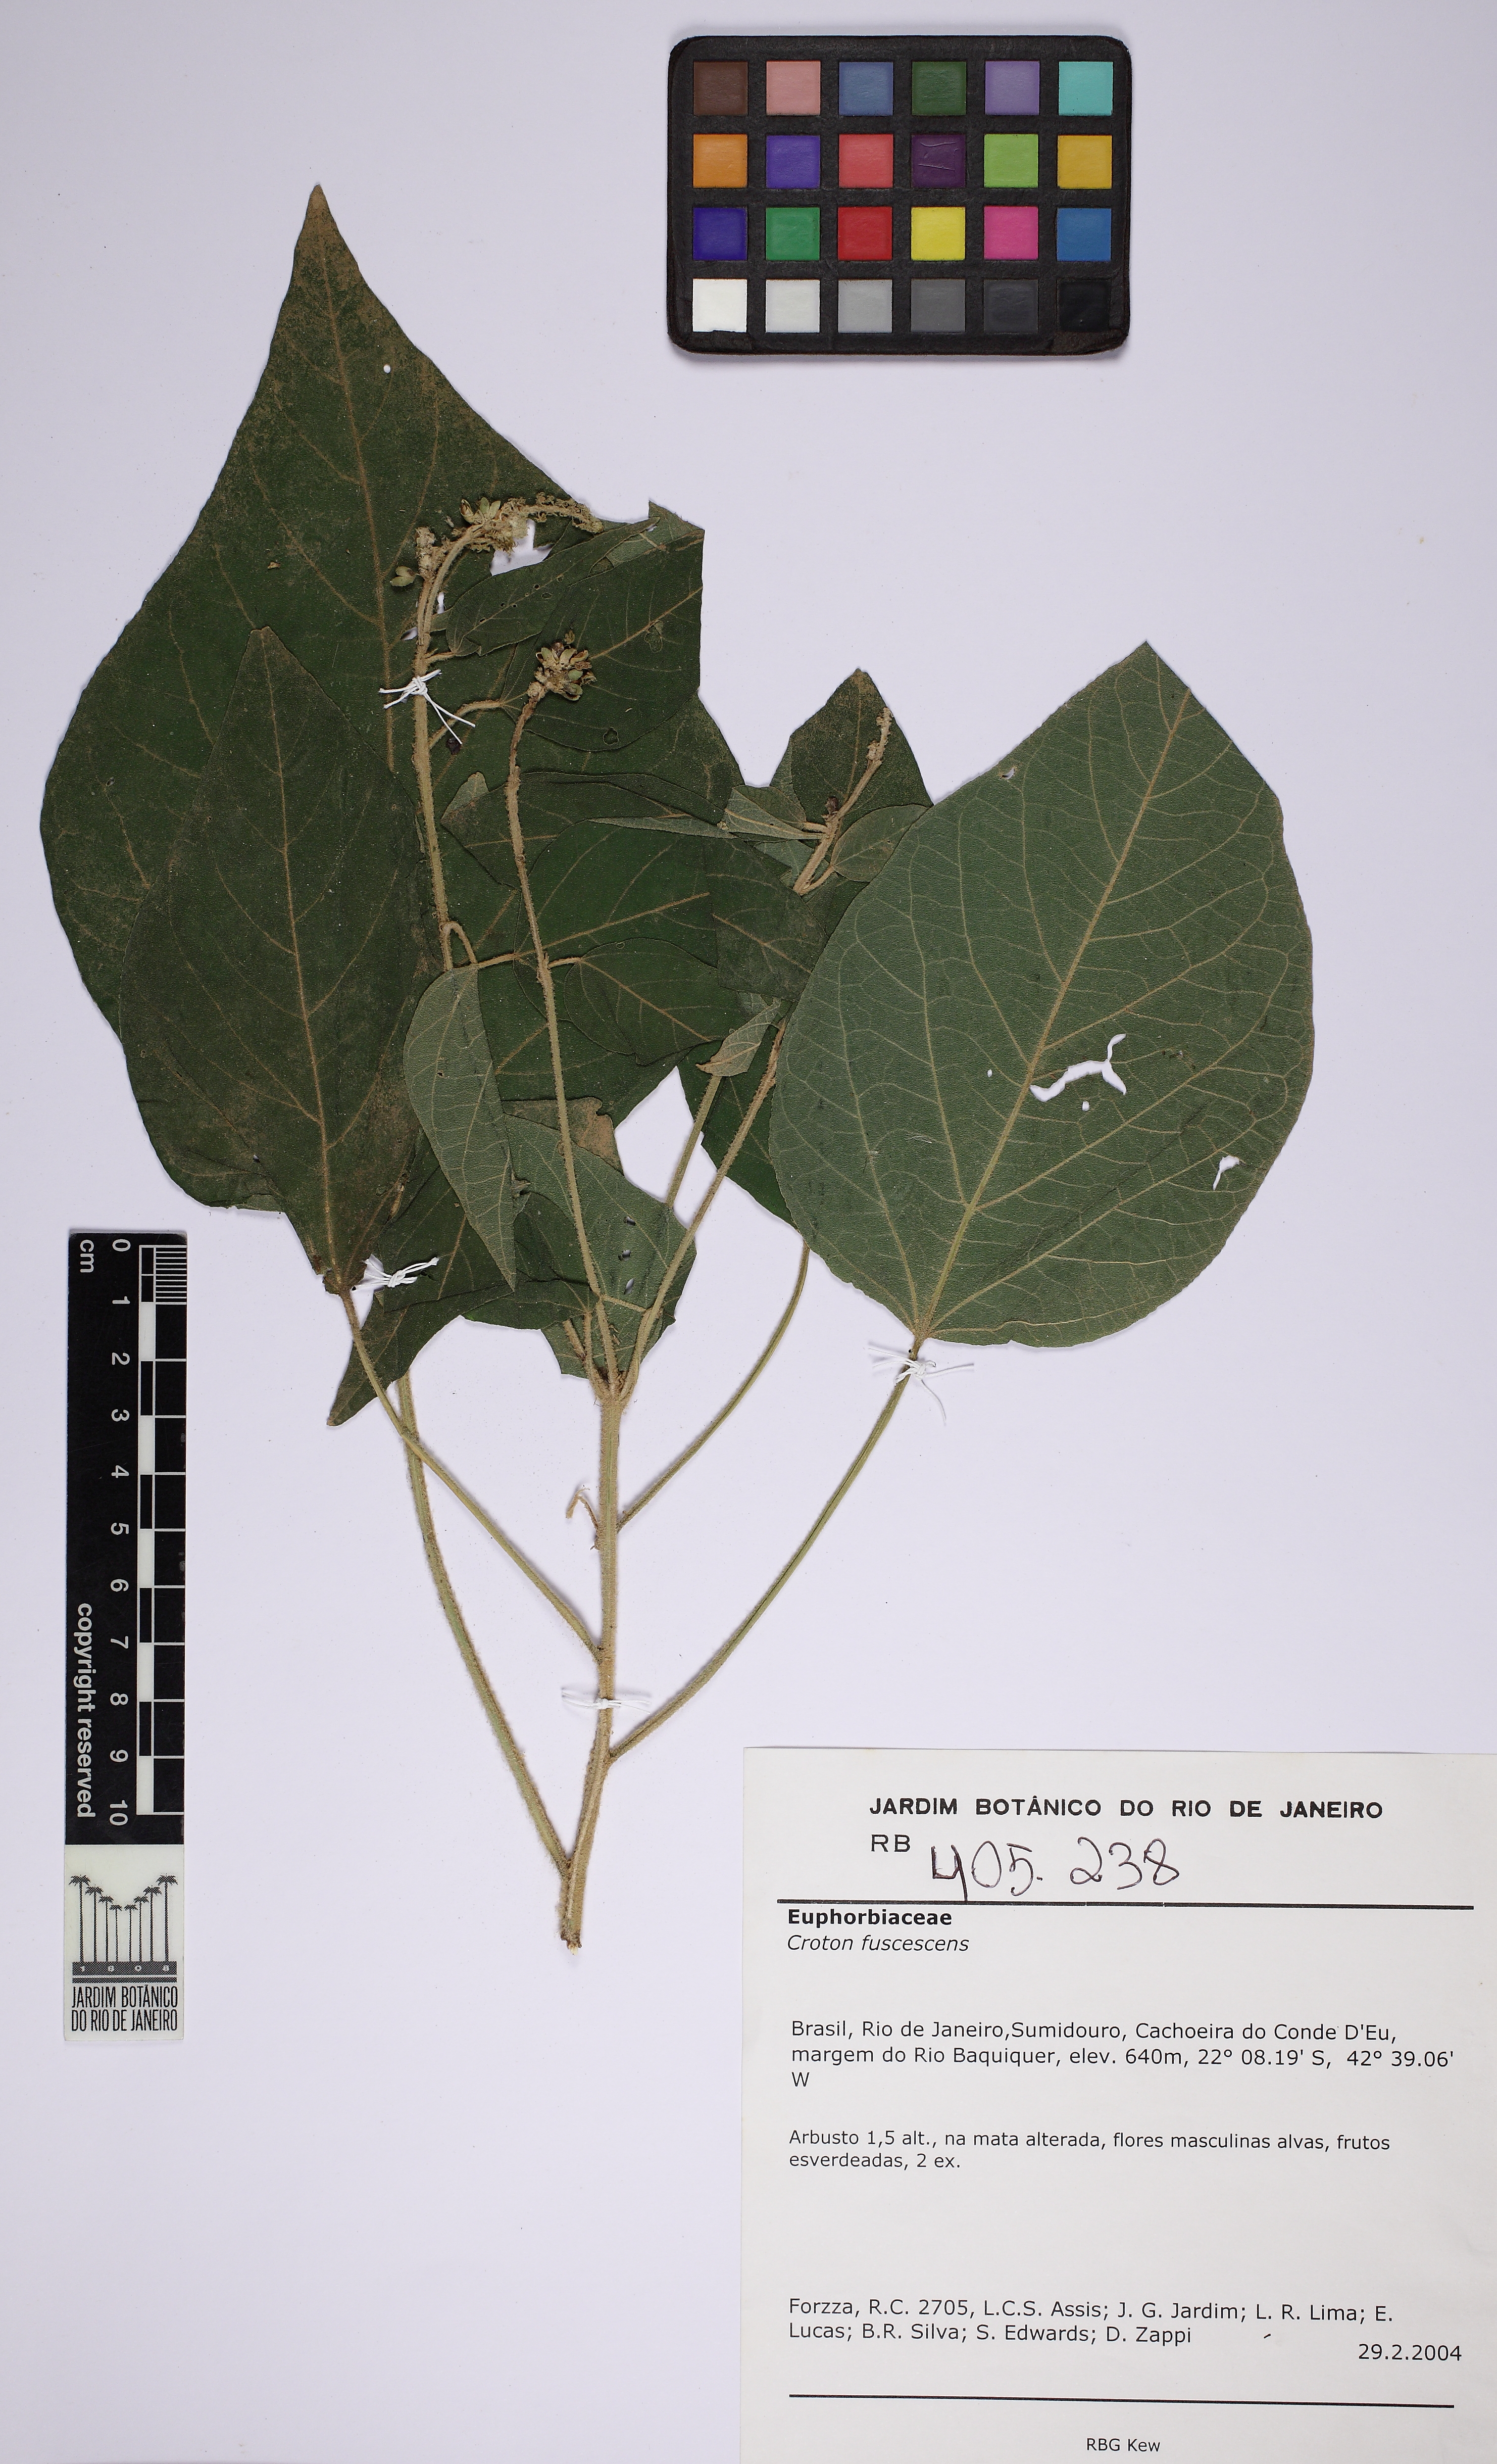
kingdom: Plantae
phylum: Tracheophyta
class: Magnoliopsida
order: Malpighiales
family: Euphorbiaceae
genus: Croton
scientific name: Croton gnaphaloides
